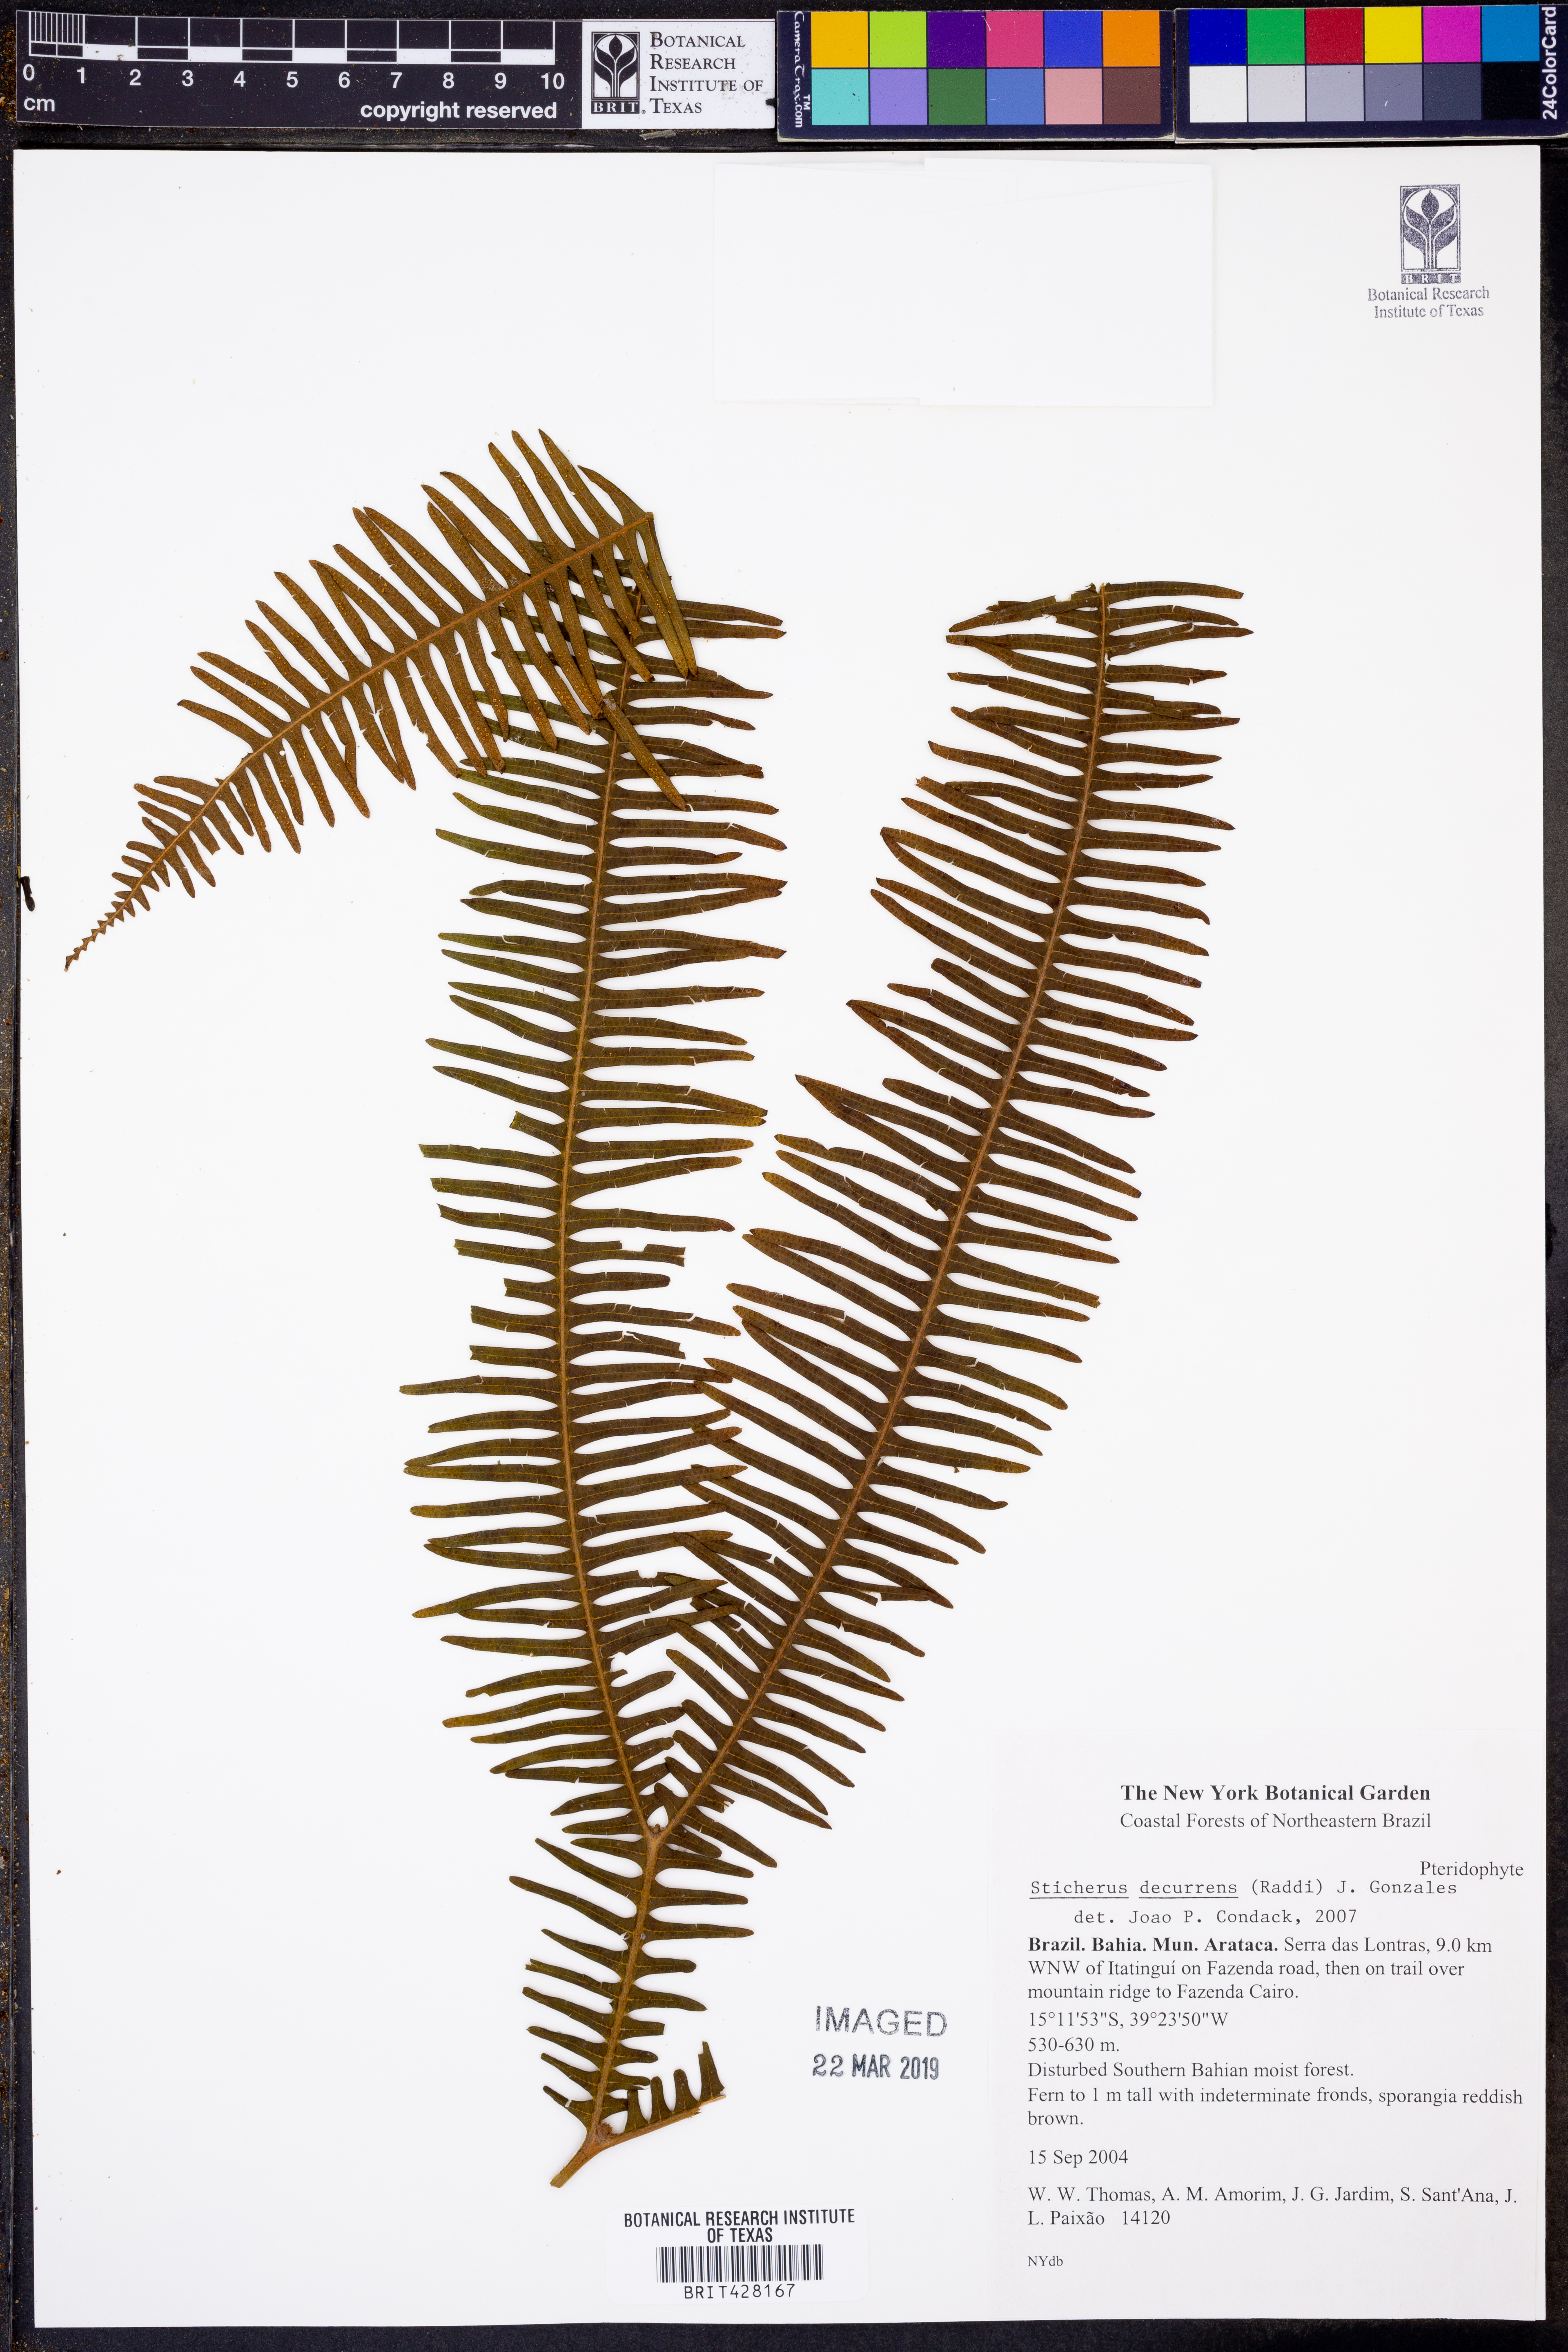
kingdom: Plantae
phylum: Tracheophyta
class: Polypodiopsida
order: Gleicheniales
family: Gleicheniaceae
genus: Sticherus
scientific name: Sticherus decurrens
